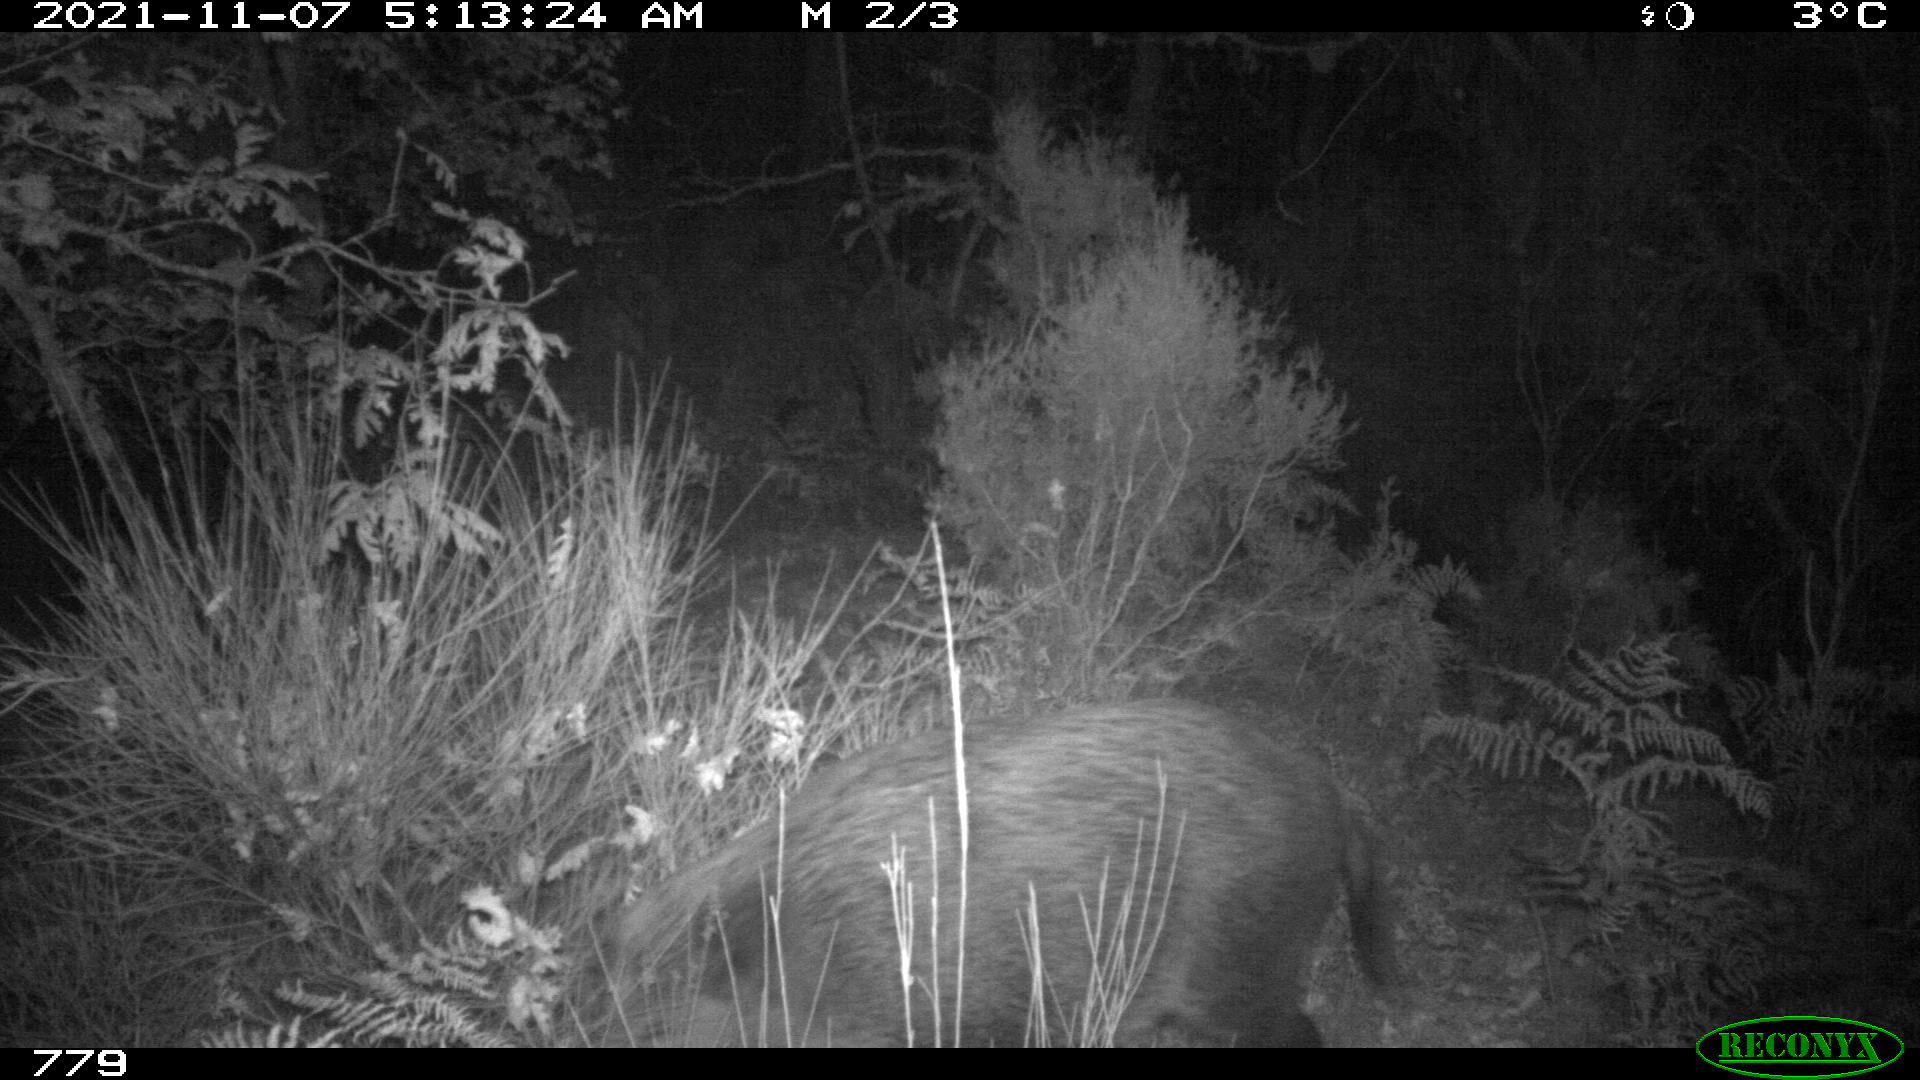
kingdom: Animalia
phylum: Chordata
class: Mammalia
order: Artiodactyla
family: Suidae
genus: Sus
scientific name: Sus scrofa
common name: Wild boar
